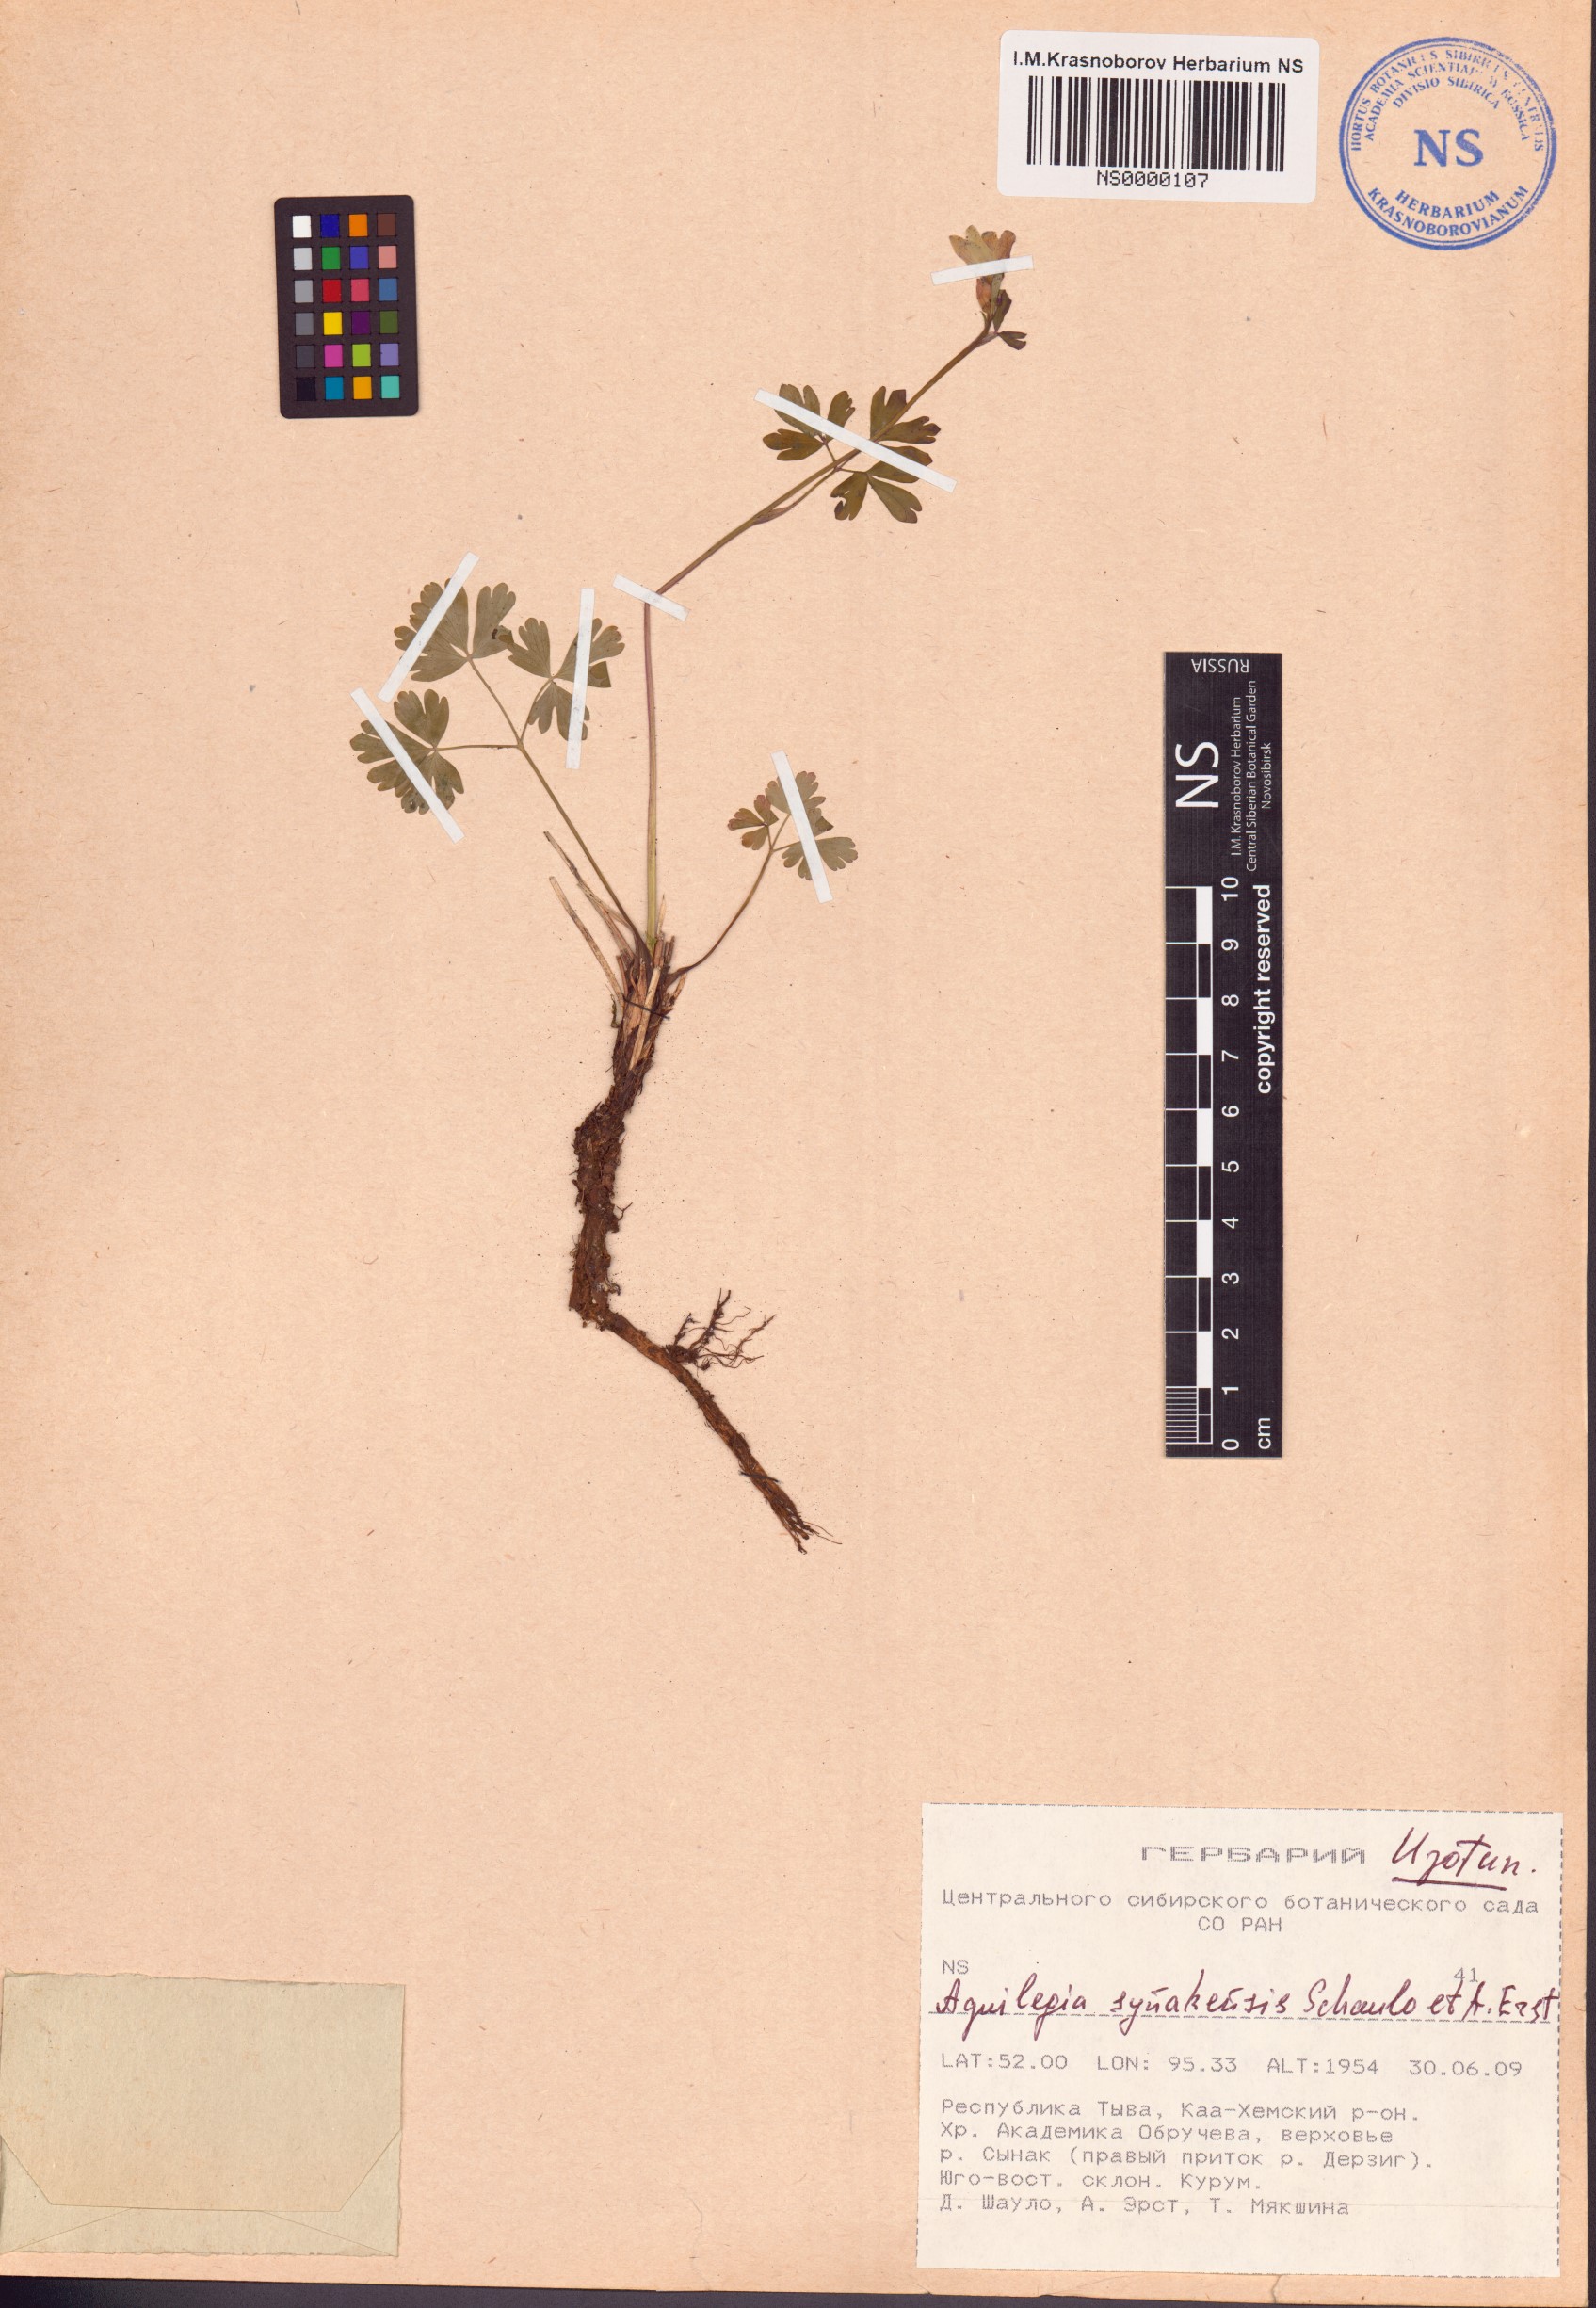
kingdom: Plantae
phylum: Tracheophyta
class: Magnoliopsida
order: Ranunculales
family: Ranunculaceae
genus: Aquilegia
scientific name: Aquilegia synakensis
